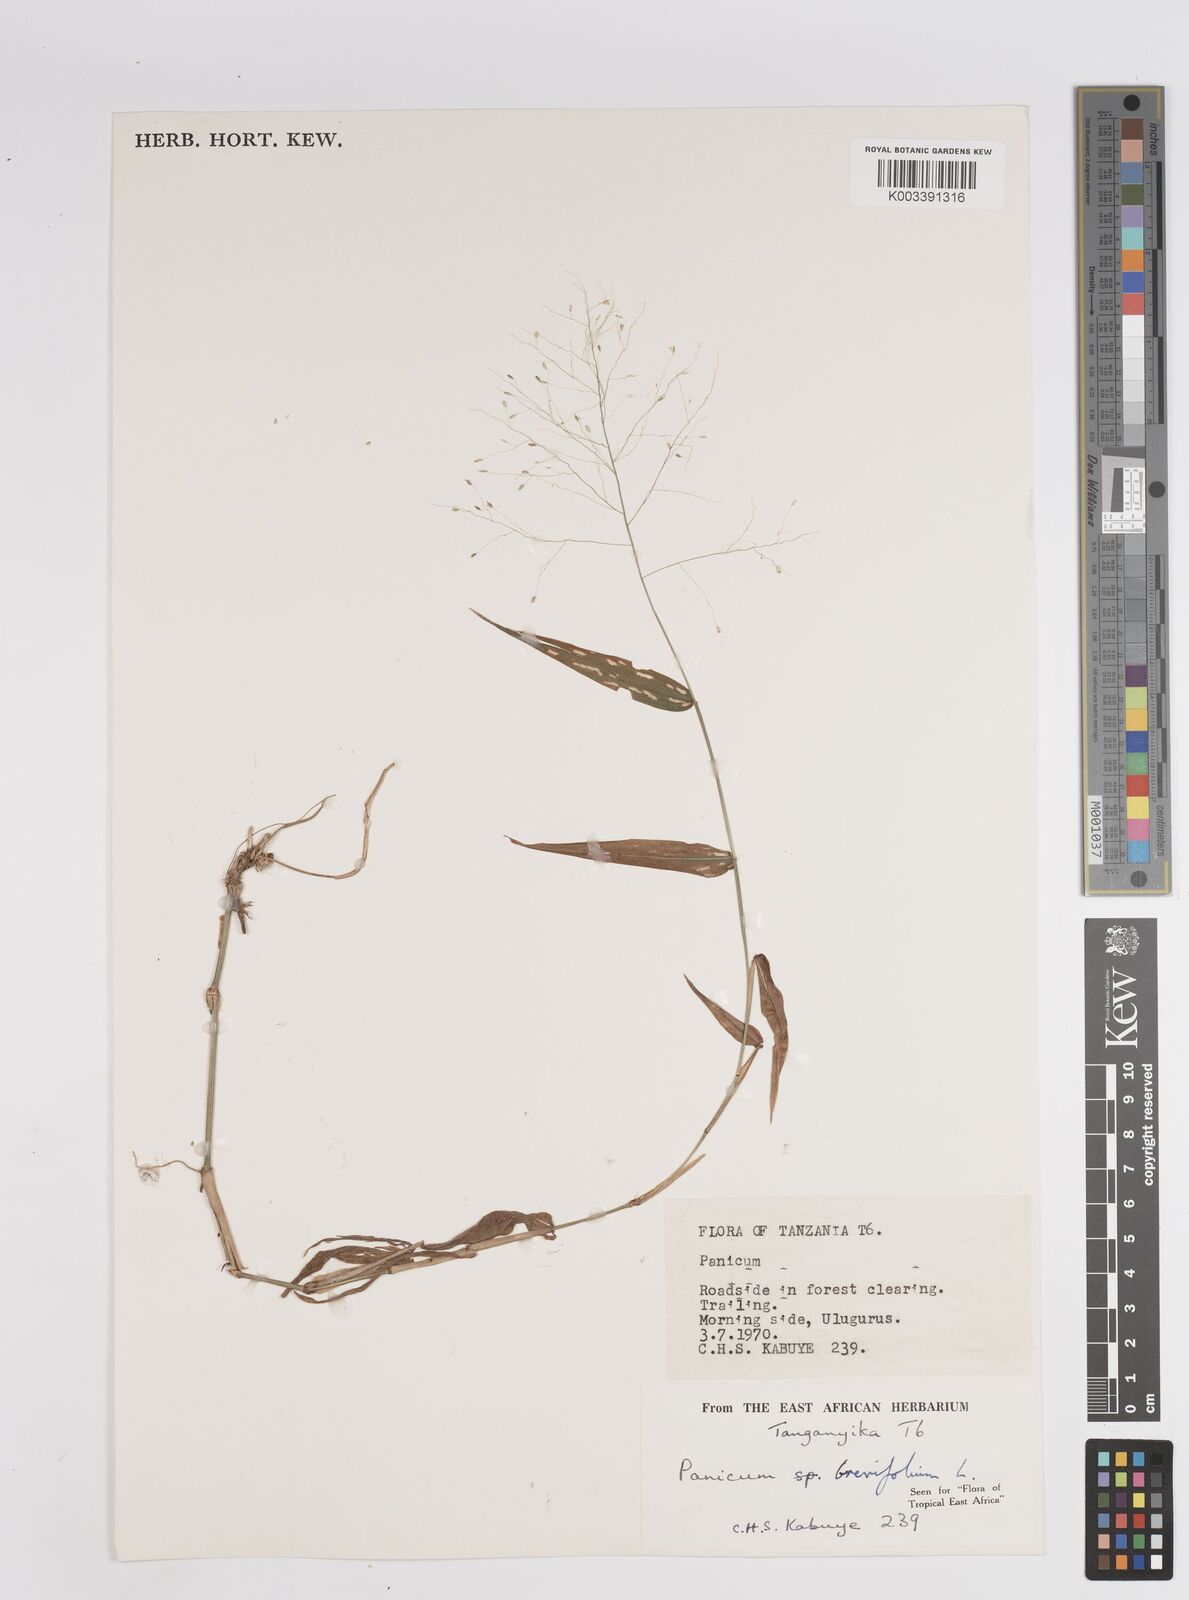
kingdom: Plantae
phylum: Tracheophyta
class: Liliopsida
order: Poales
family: Poaceae
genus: Panicum
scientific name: Panicum brevifolium
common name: Shortleaf panic grass
